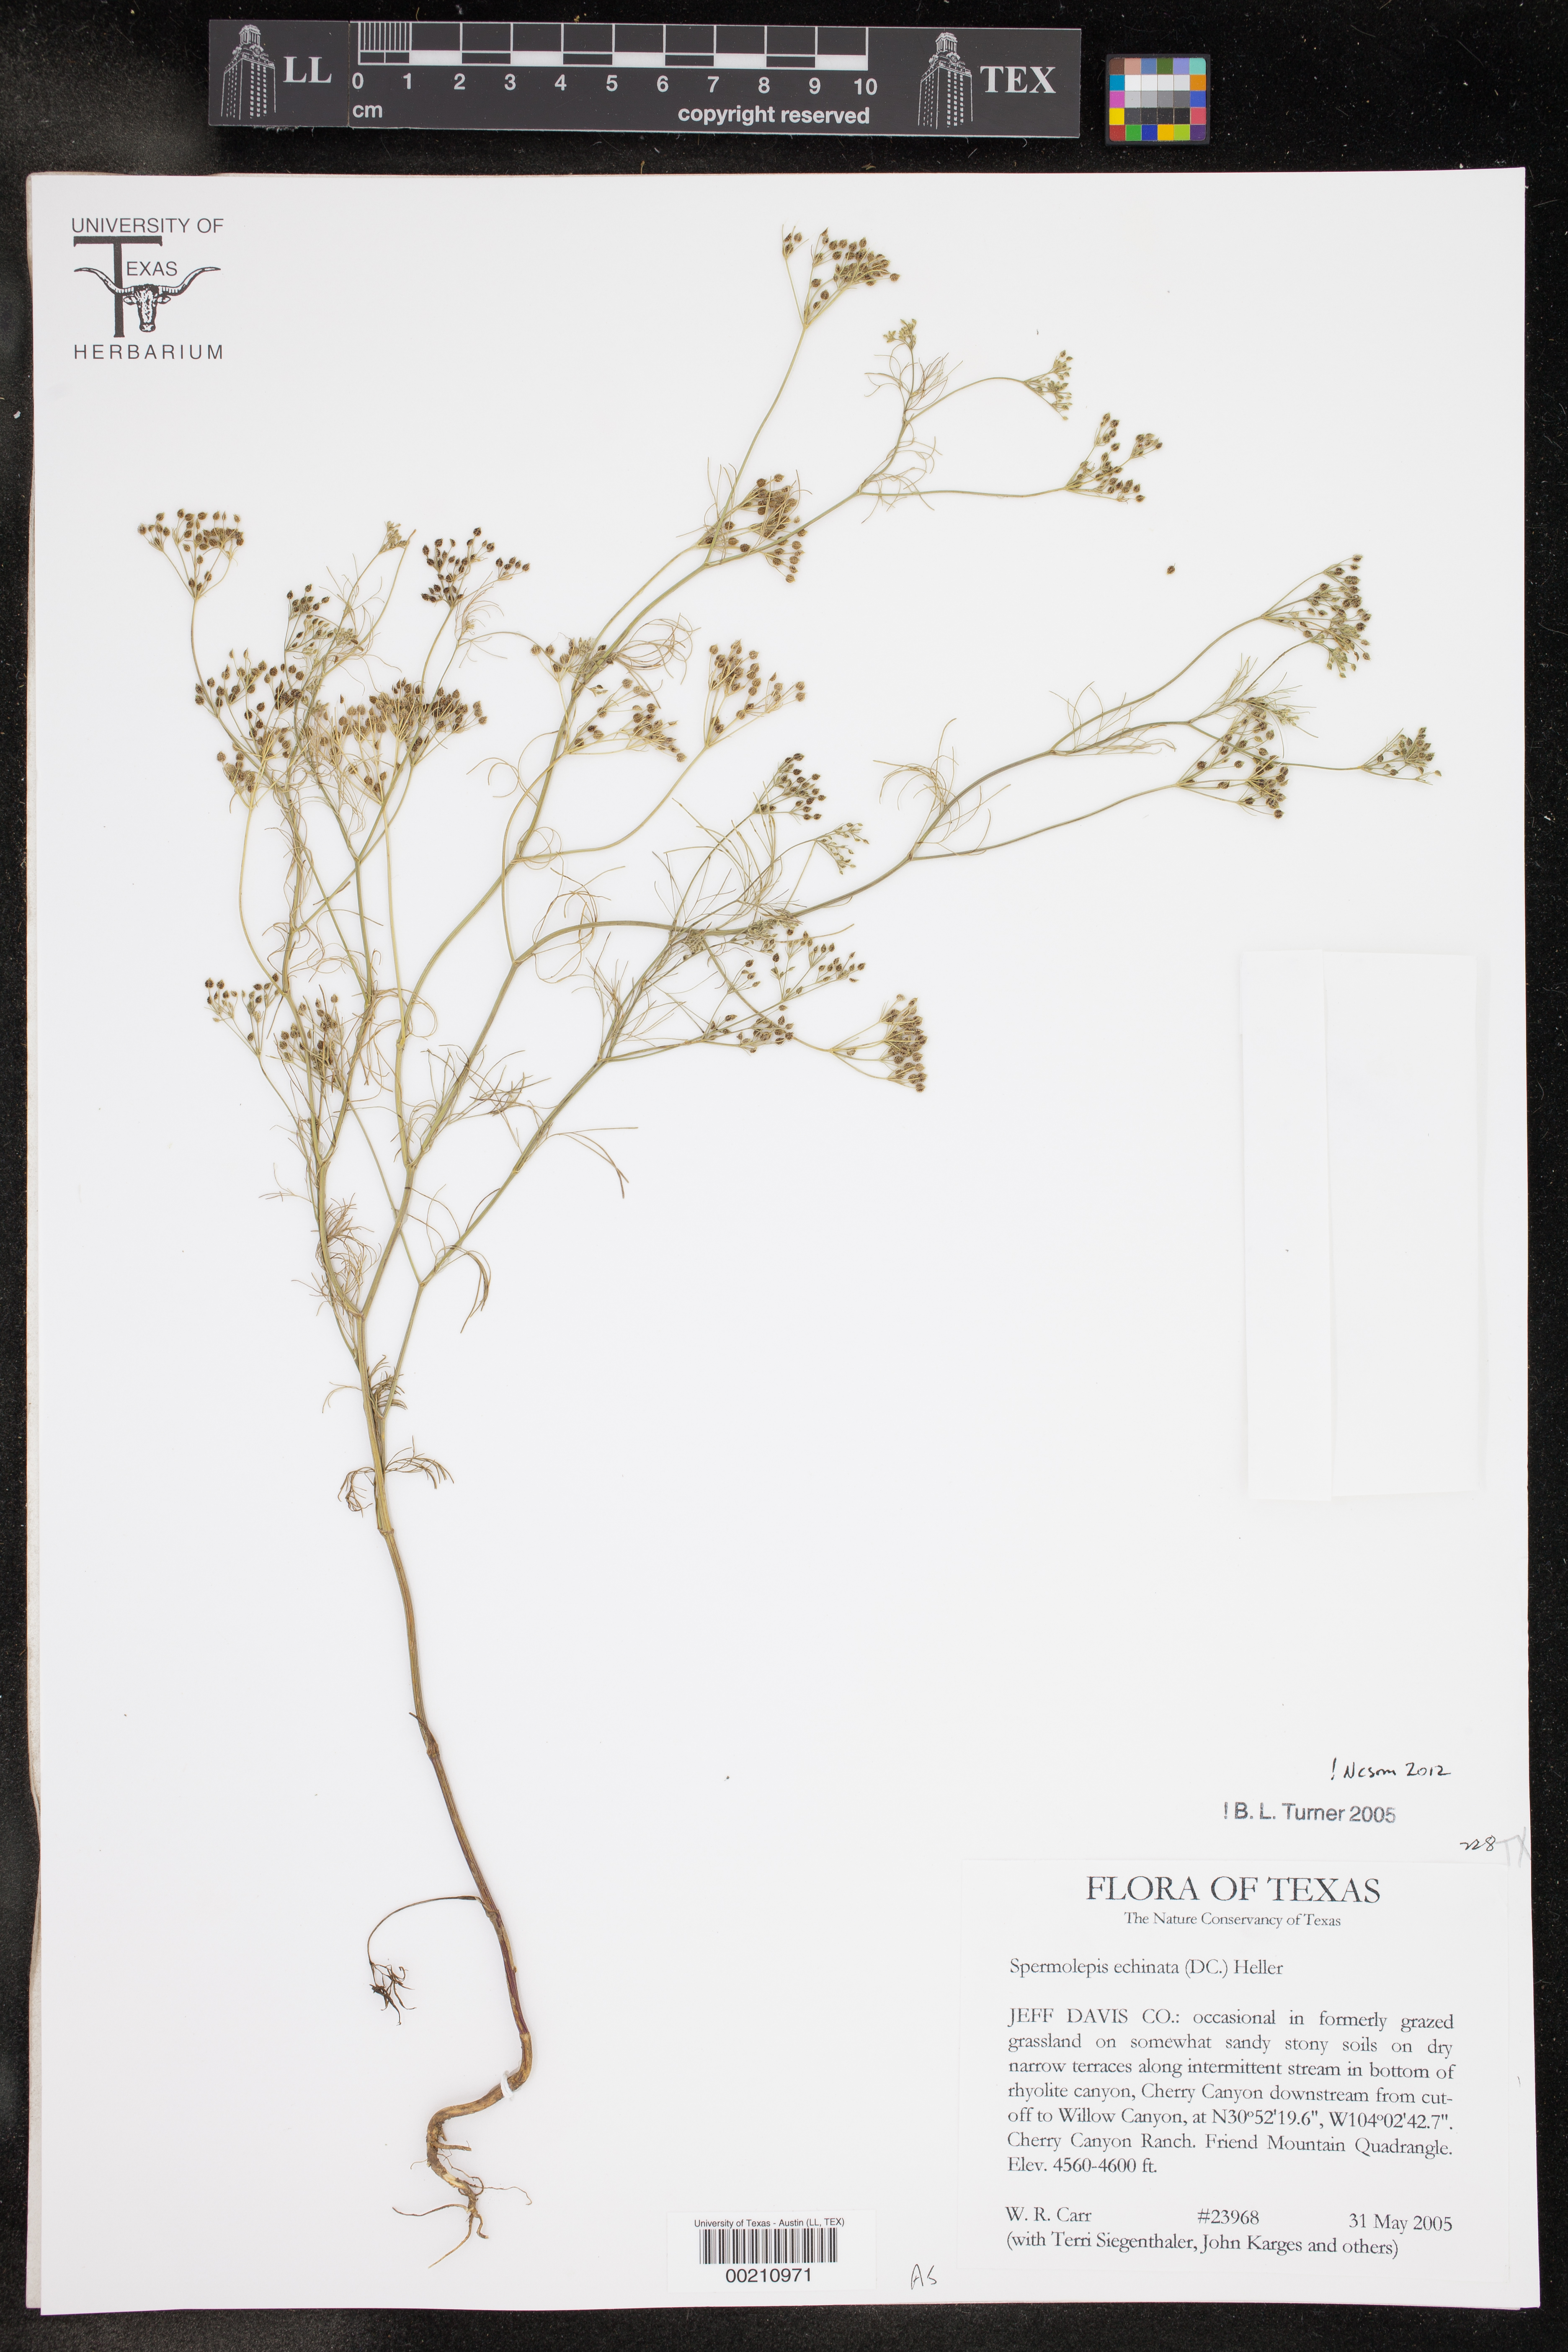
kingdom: Plantae
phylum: Tracheophyta
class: Magnoliopsida
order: Apiales
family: Apiaceae
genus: Spermolepis
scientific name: Spermolepis echinata
